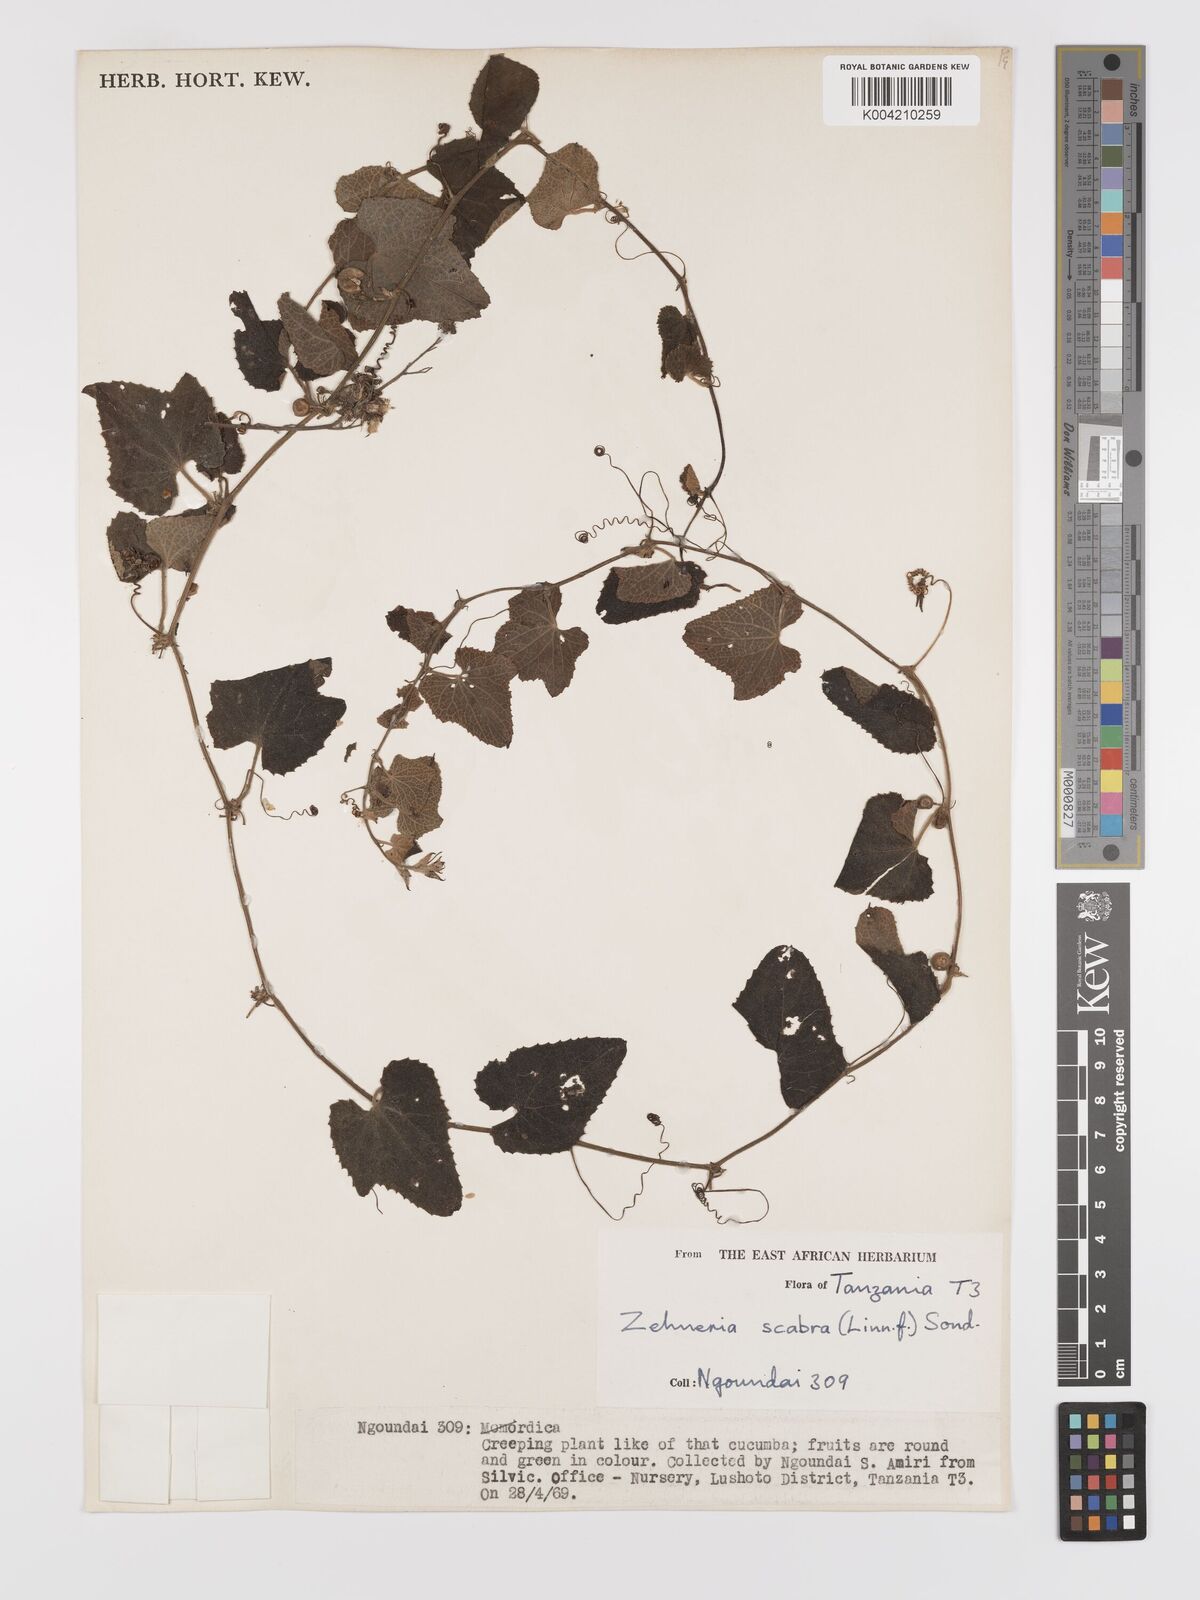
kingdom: Plantae
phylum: Tracheophyta
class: Magnoliopsida
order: Cucurbitales
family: Cucurbitaceae
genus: Zehneria
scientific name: Zehneria scabra
